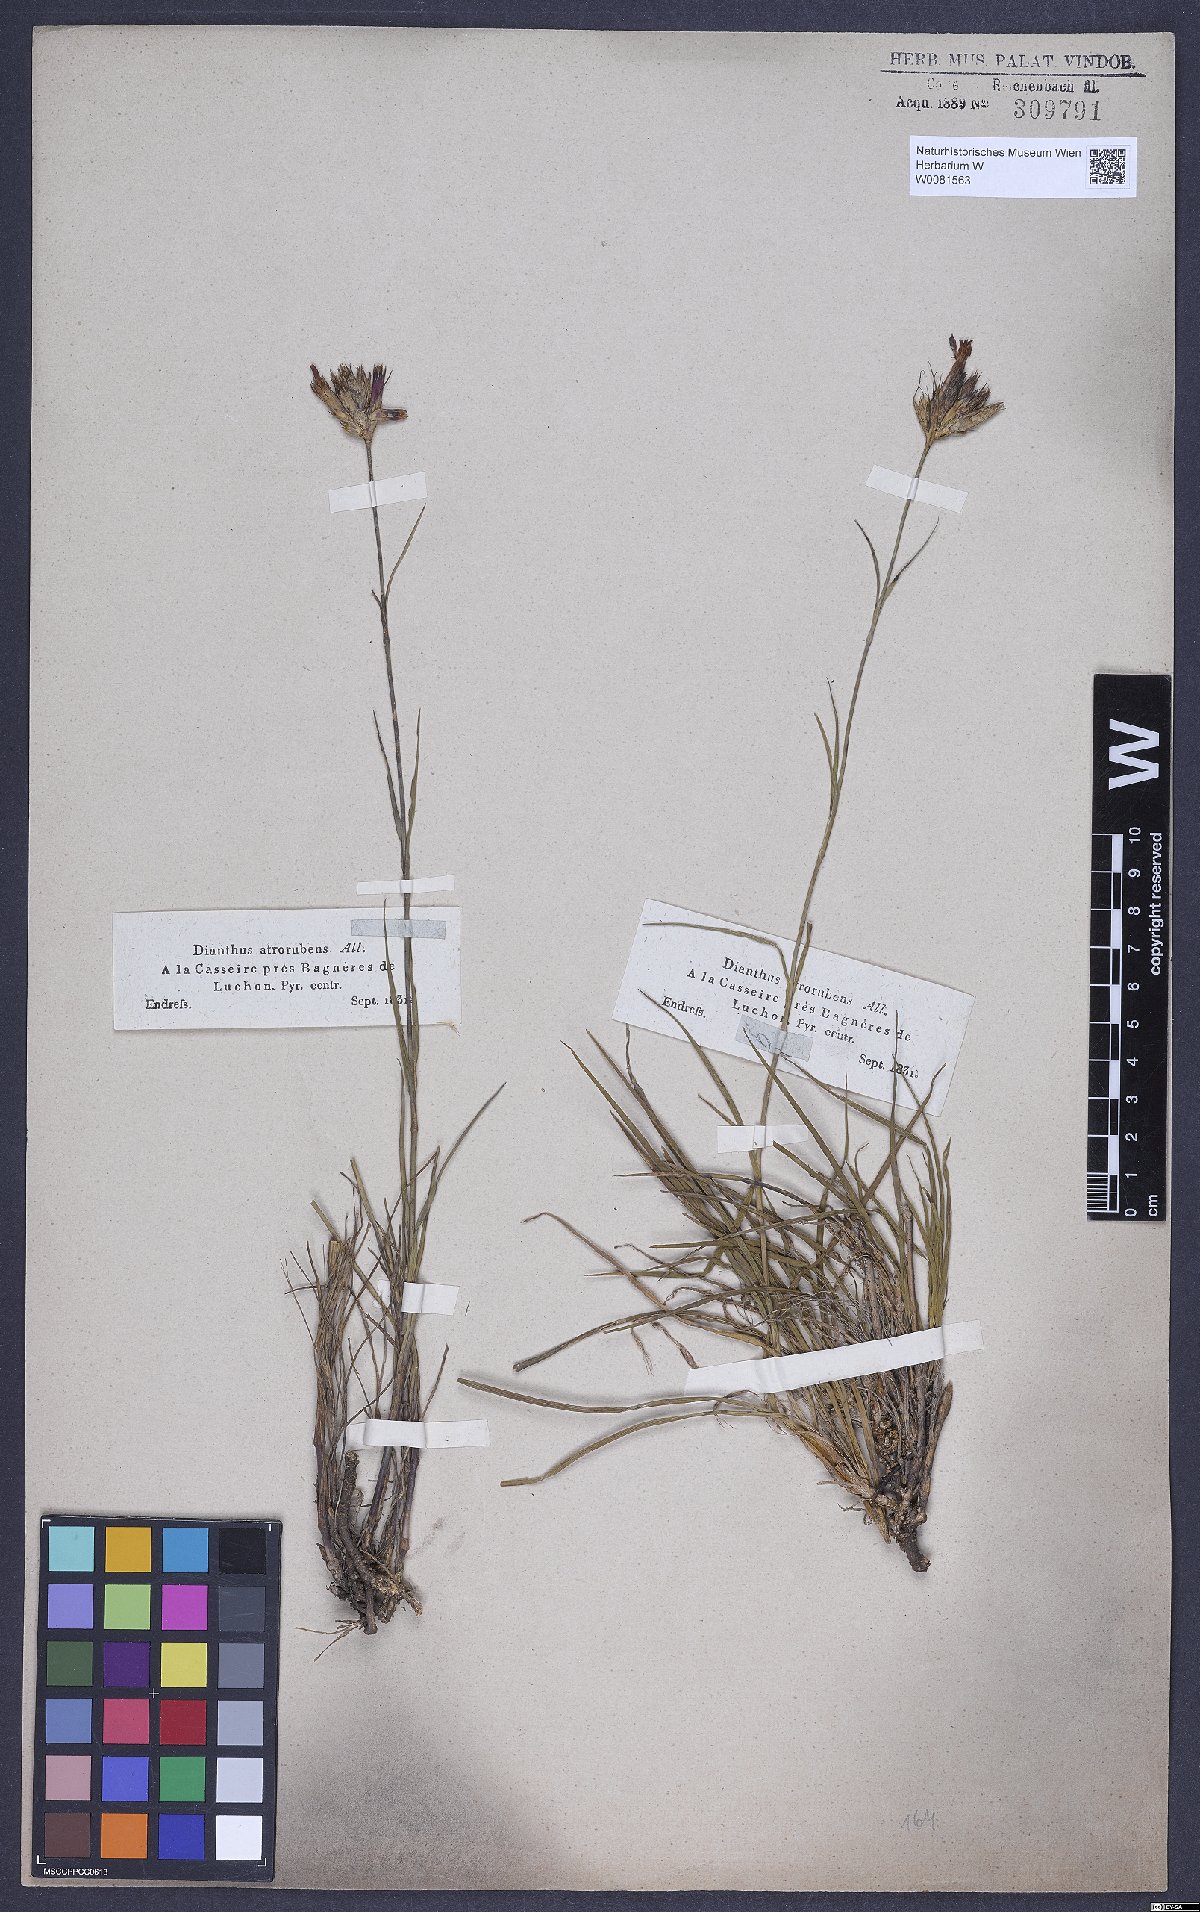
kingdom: Plantae
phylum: Tracheophyta
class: Magnoliopsida
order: Caryophyllales
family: Caryophyllaceae
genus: Dianthus
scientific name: Dianthus carthusianorum
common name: Carthusian pink
